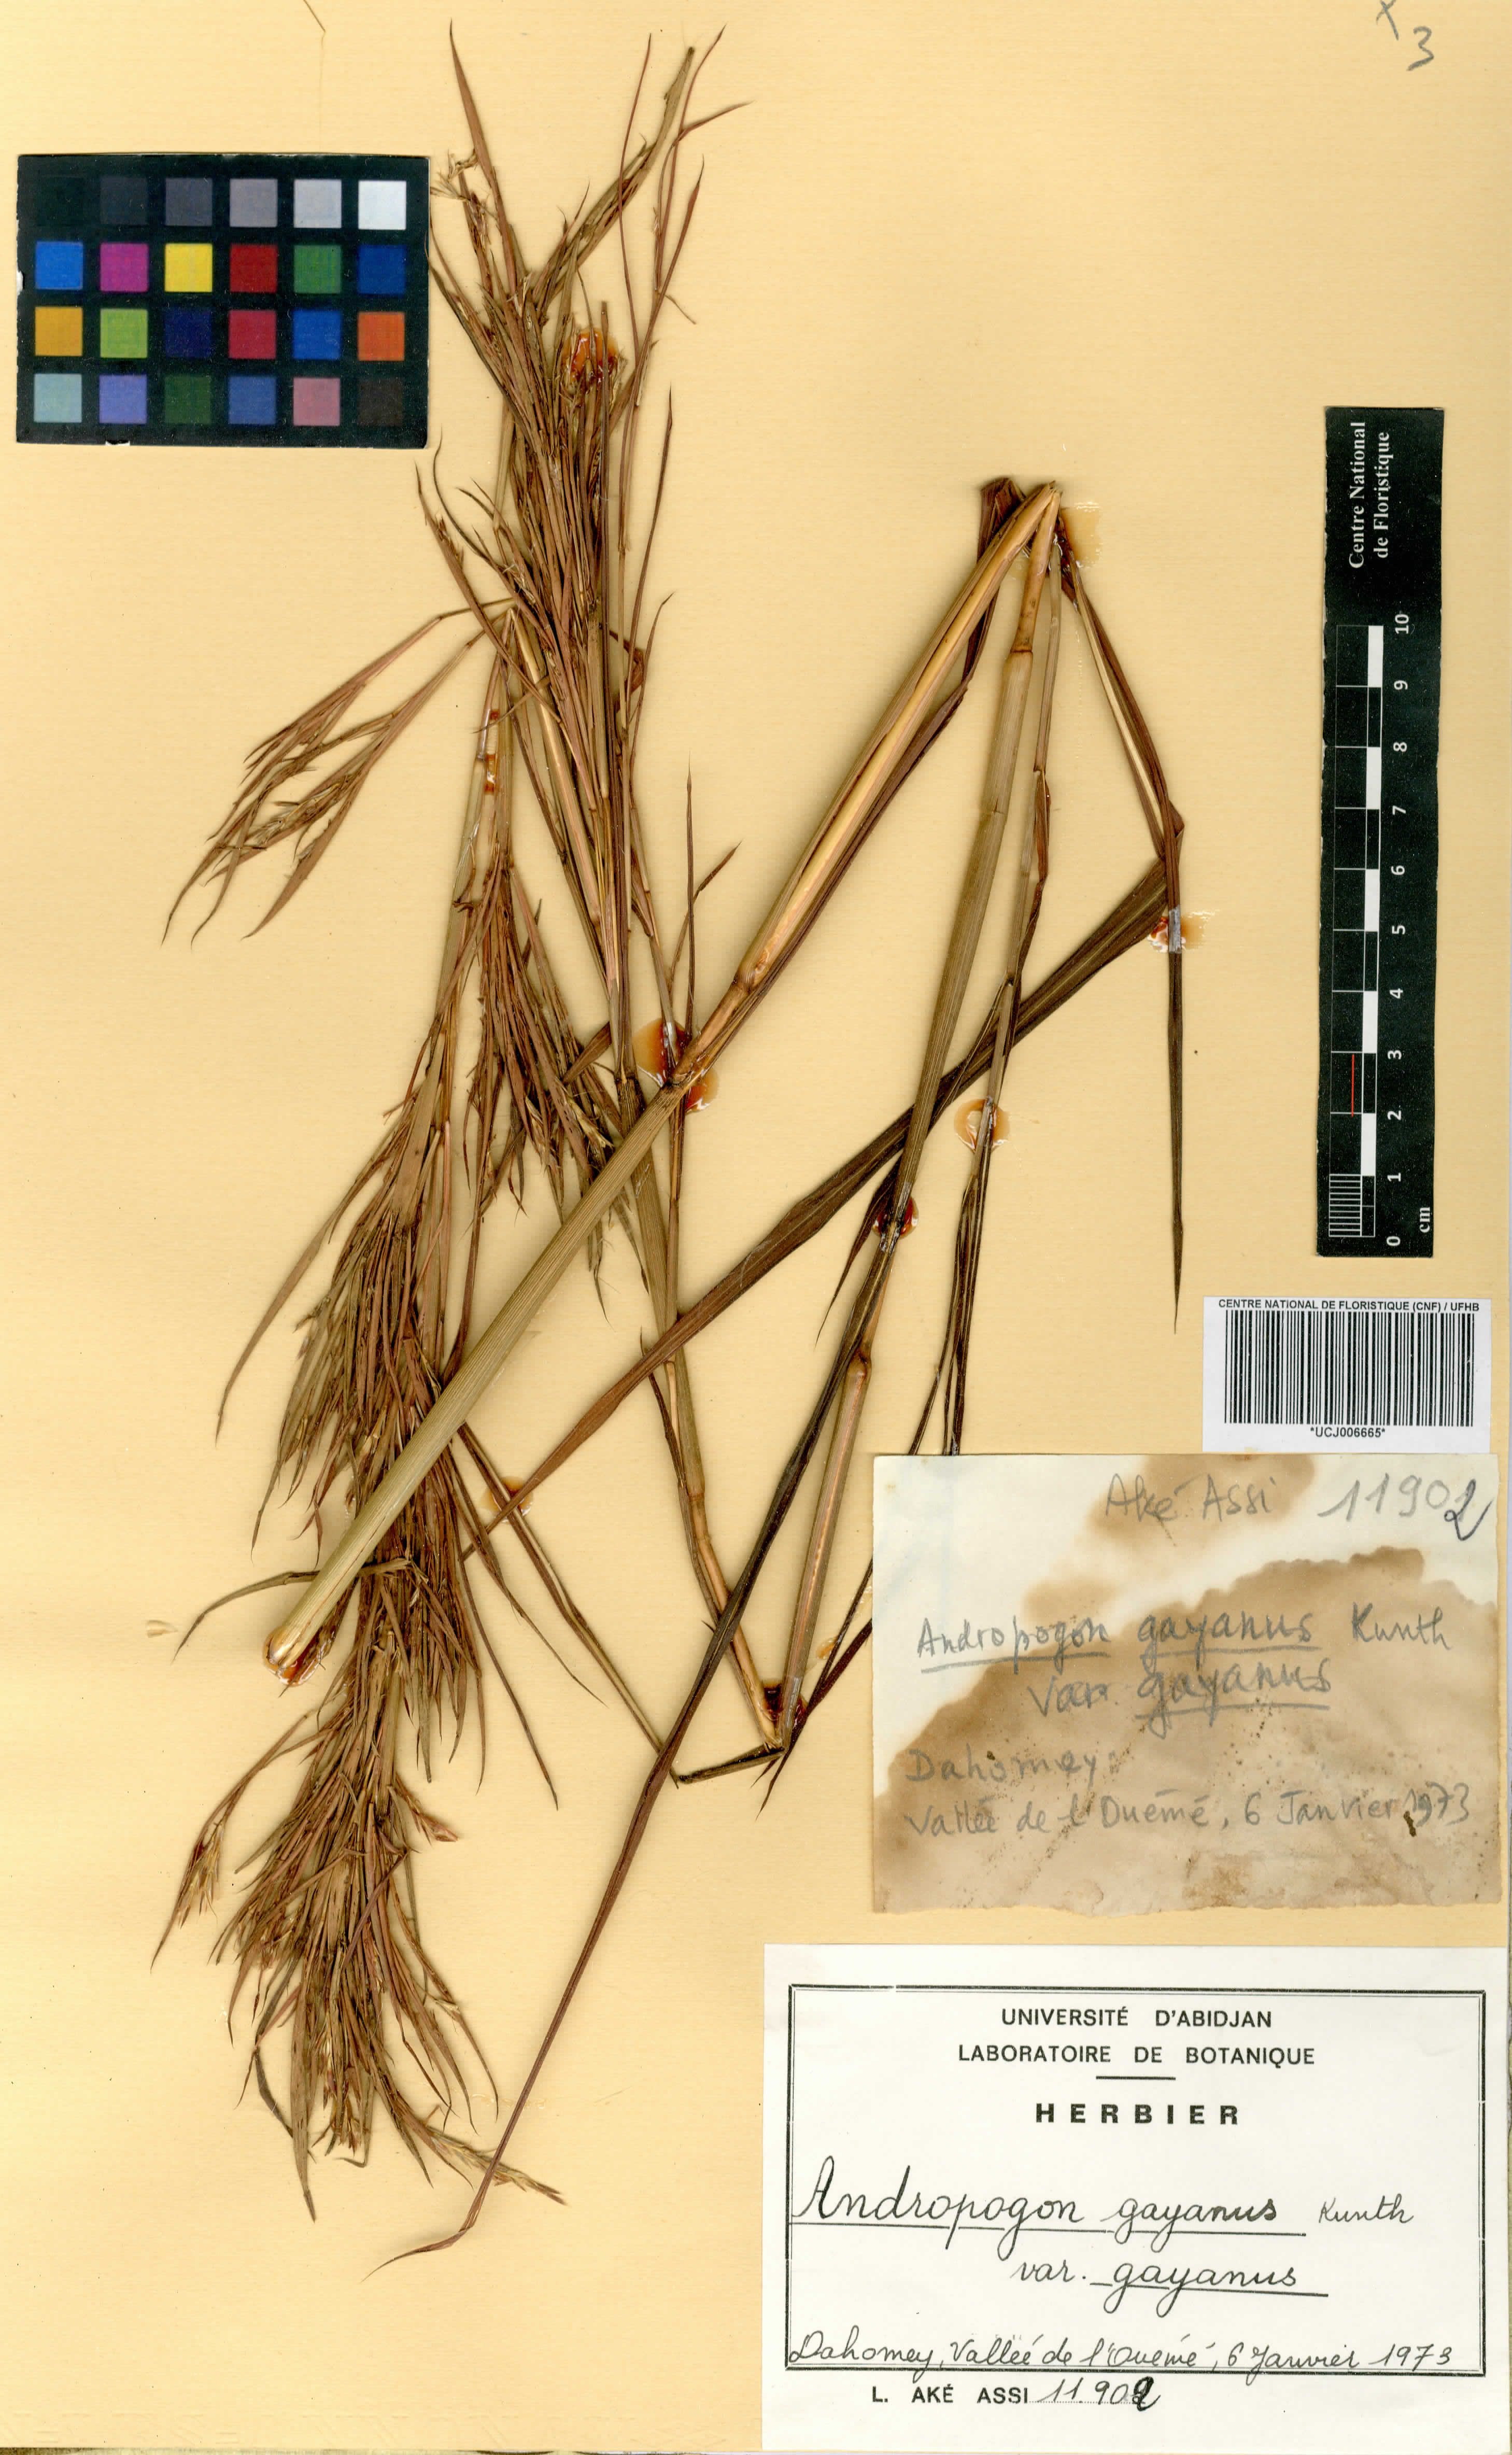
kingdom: Plantae
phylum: Tracheophyta
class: Liliopsida
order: Poales
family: Poaceae
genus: Andropogon
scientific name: Andropogon gayanus
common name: Tambuki grass
